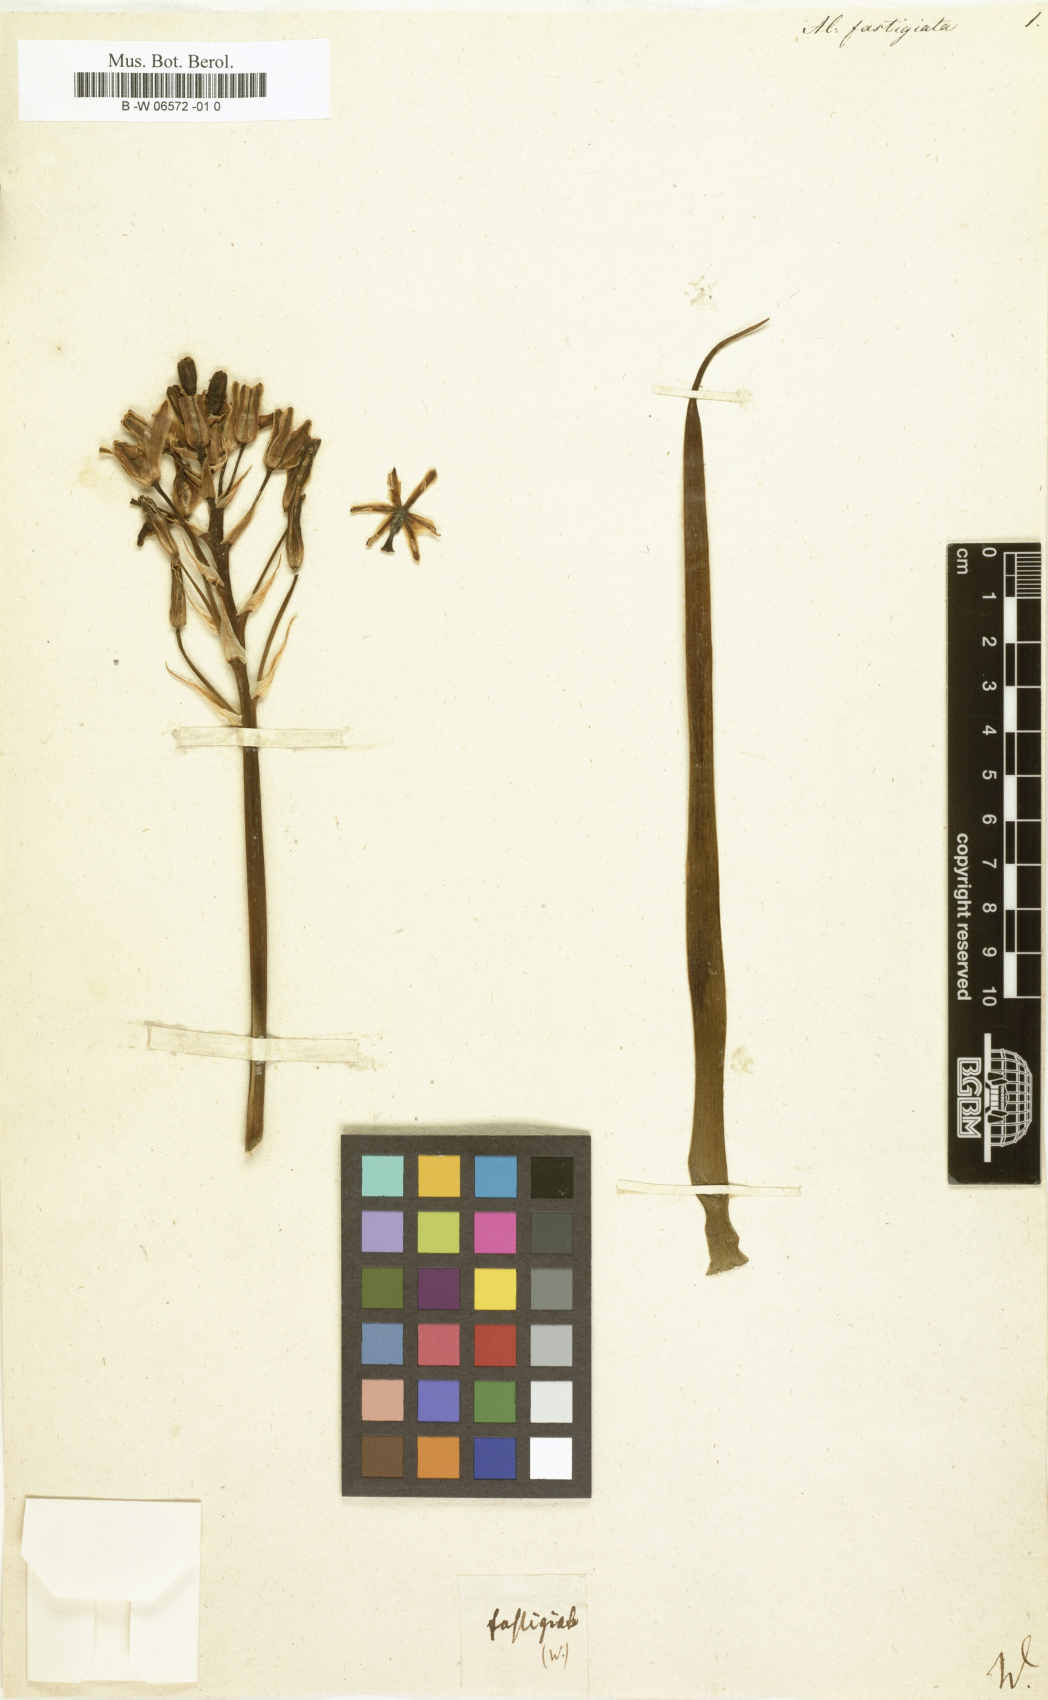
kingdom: Plantae
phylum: Tracheophyta
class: Liliopsida
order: Asparagales
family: Asparagaceae
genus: Albuca
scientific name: Albuca fastigiata
